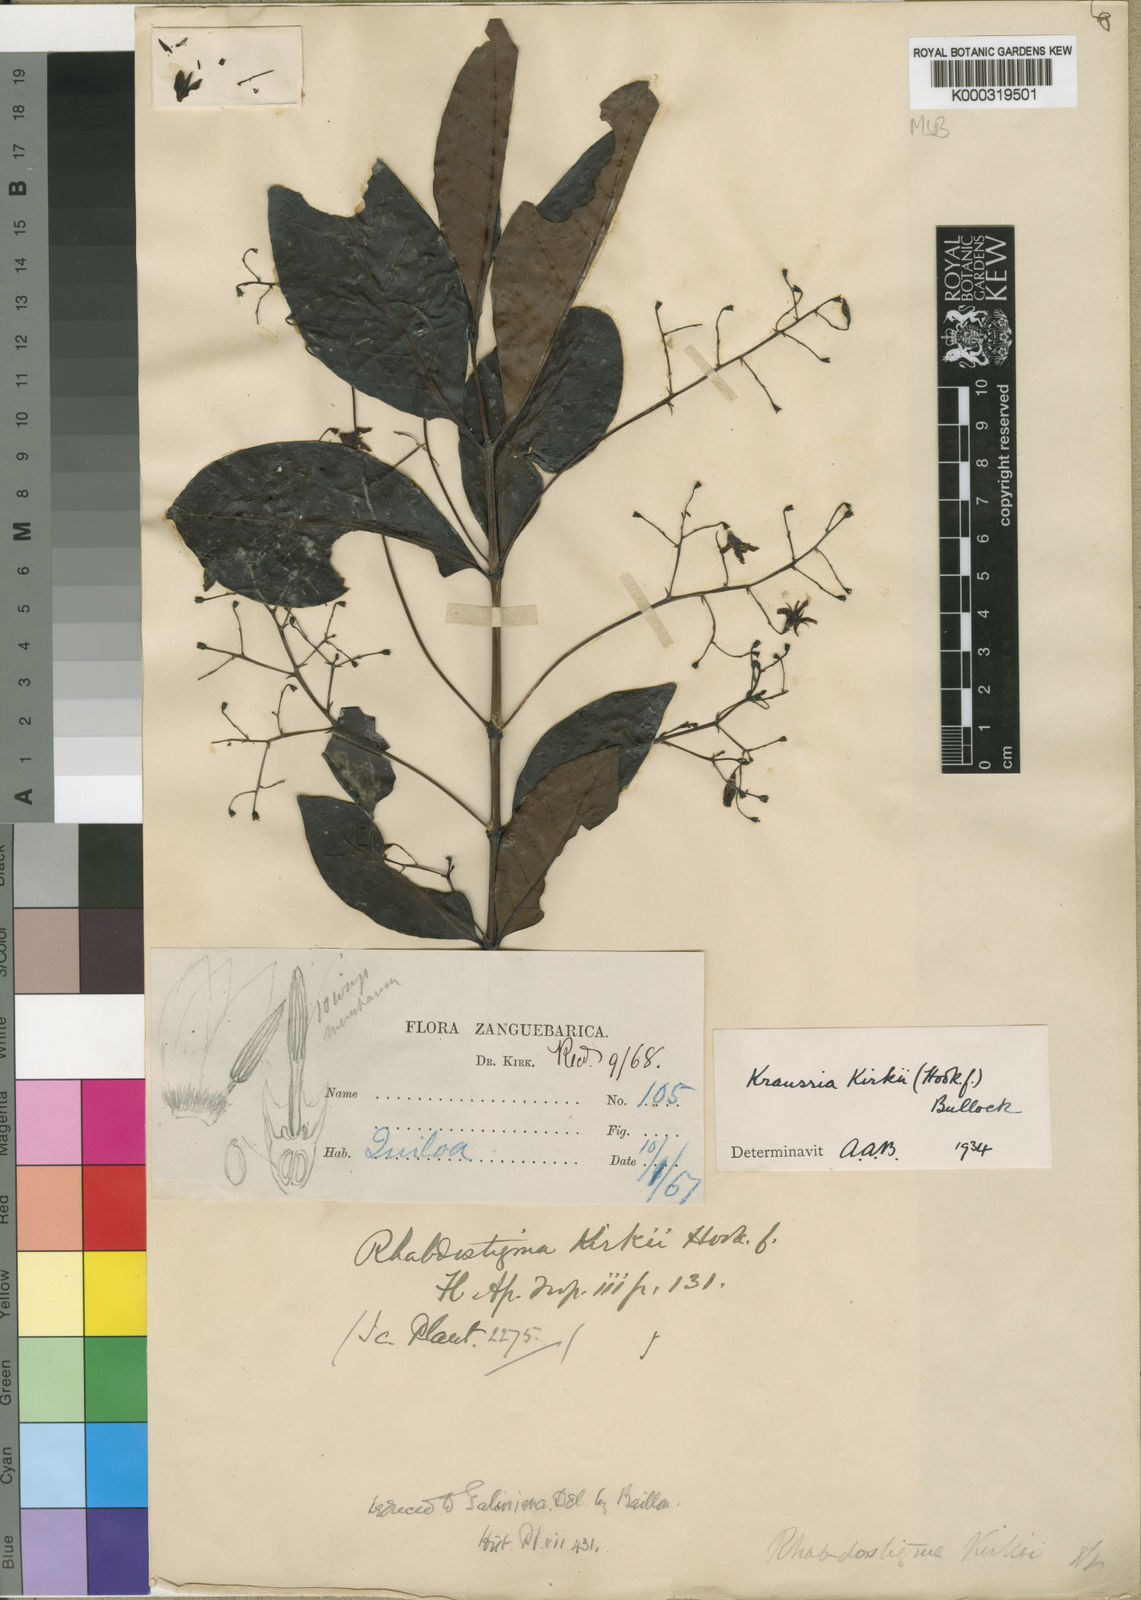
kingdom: Plantae
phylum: Tracheophyta
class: Magnoliopsida
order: Gentianales
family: Rubiaceae
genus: Kraussia
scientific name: Kraussia kirkii
